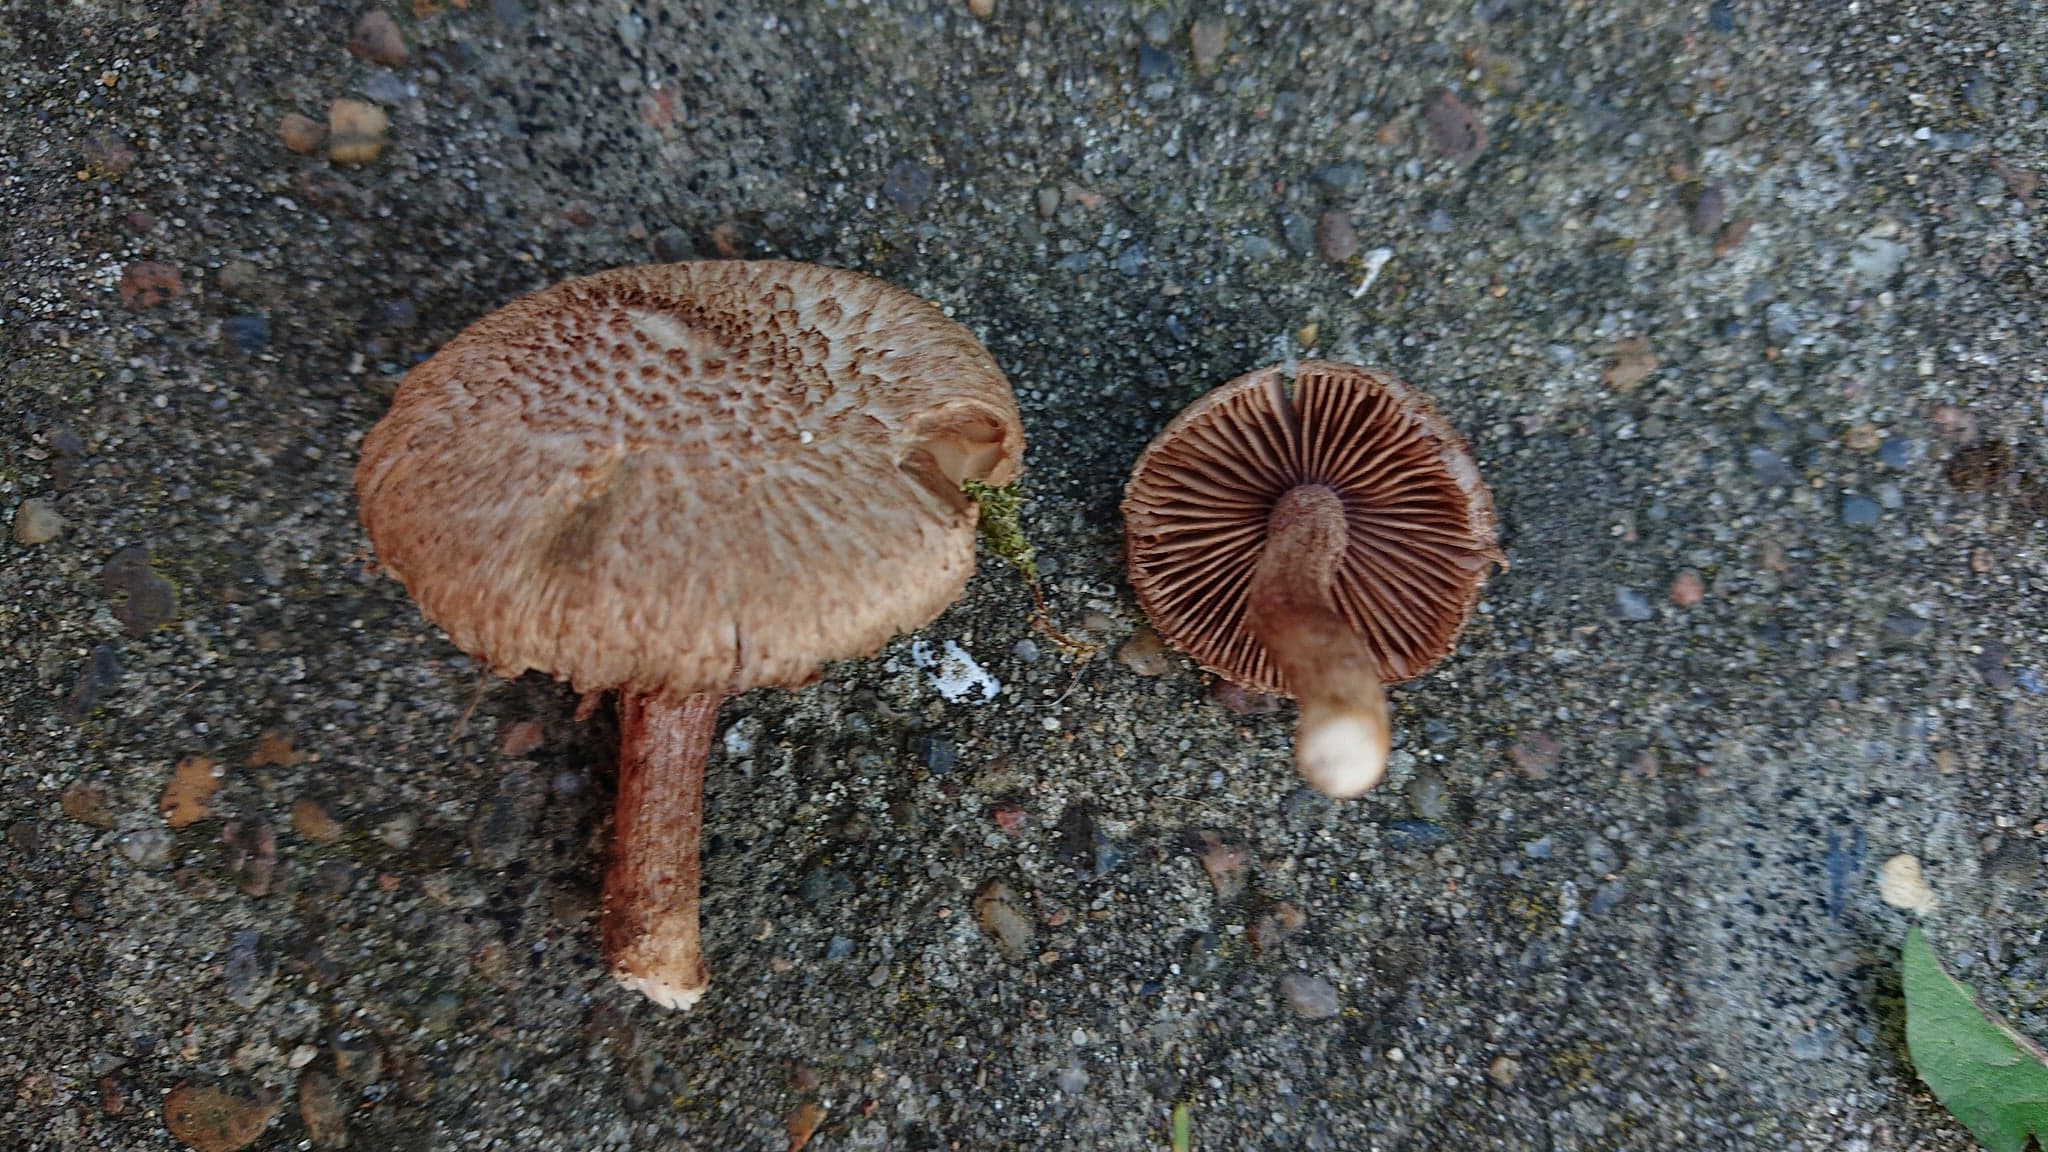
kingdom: Fungi
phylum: Basidiomycota
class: Agaricomycetes
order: Agaricales
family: Inocybaceae
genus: Inocybe
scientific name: Inocybe cincinnata
